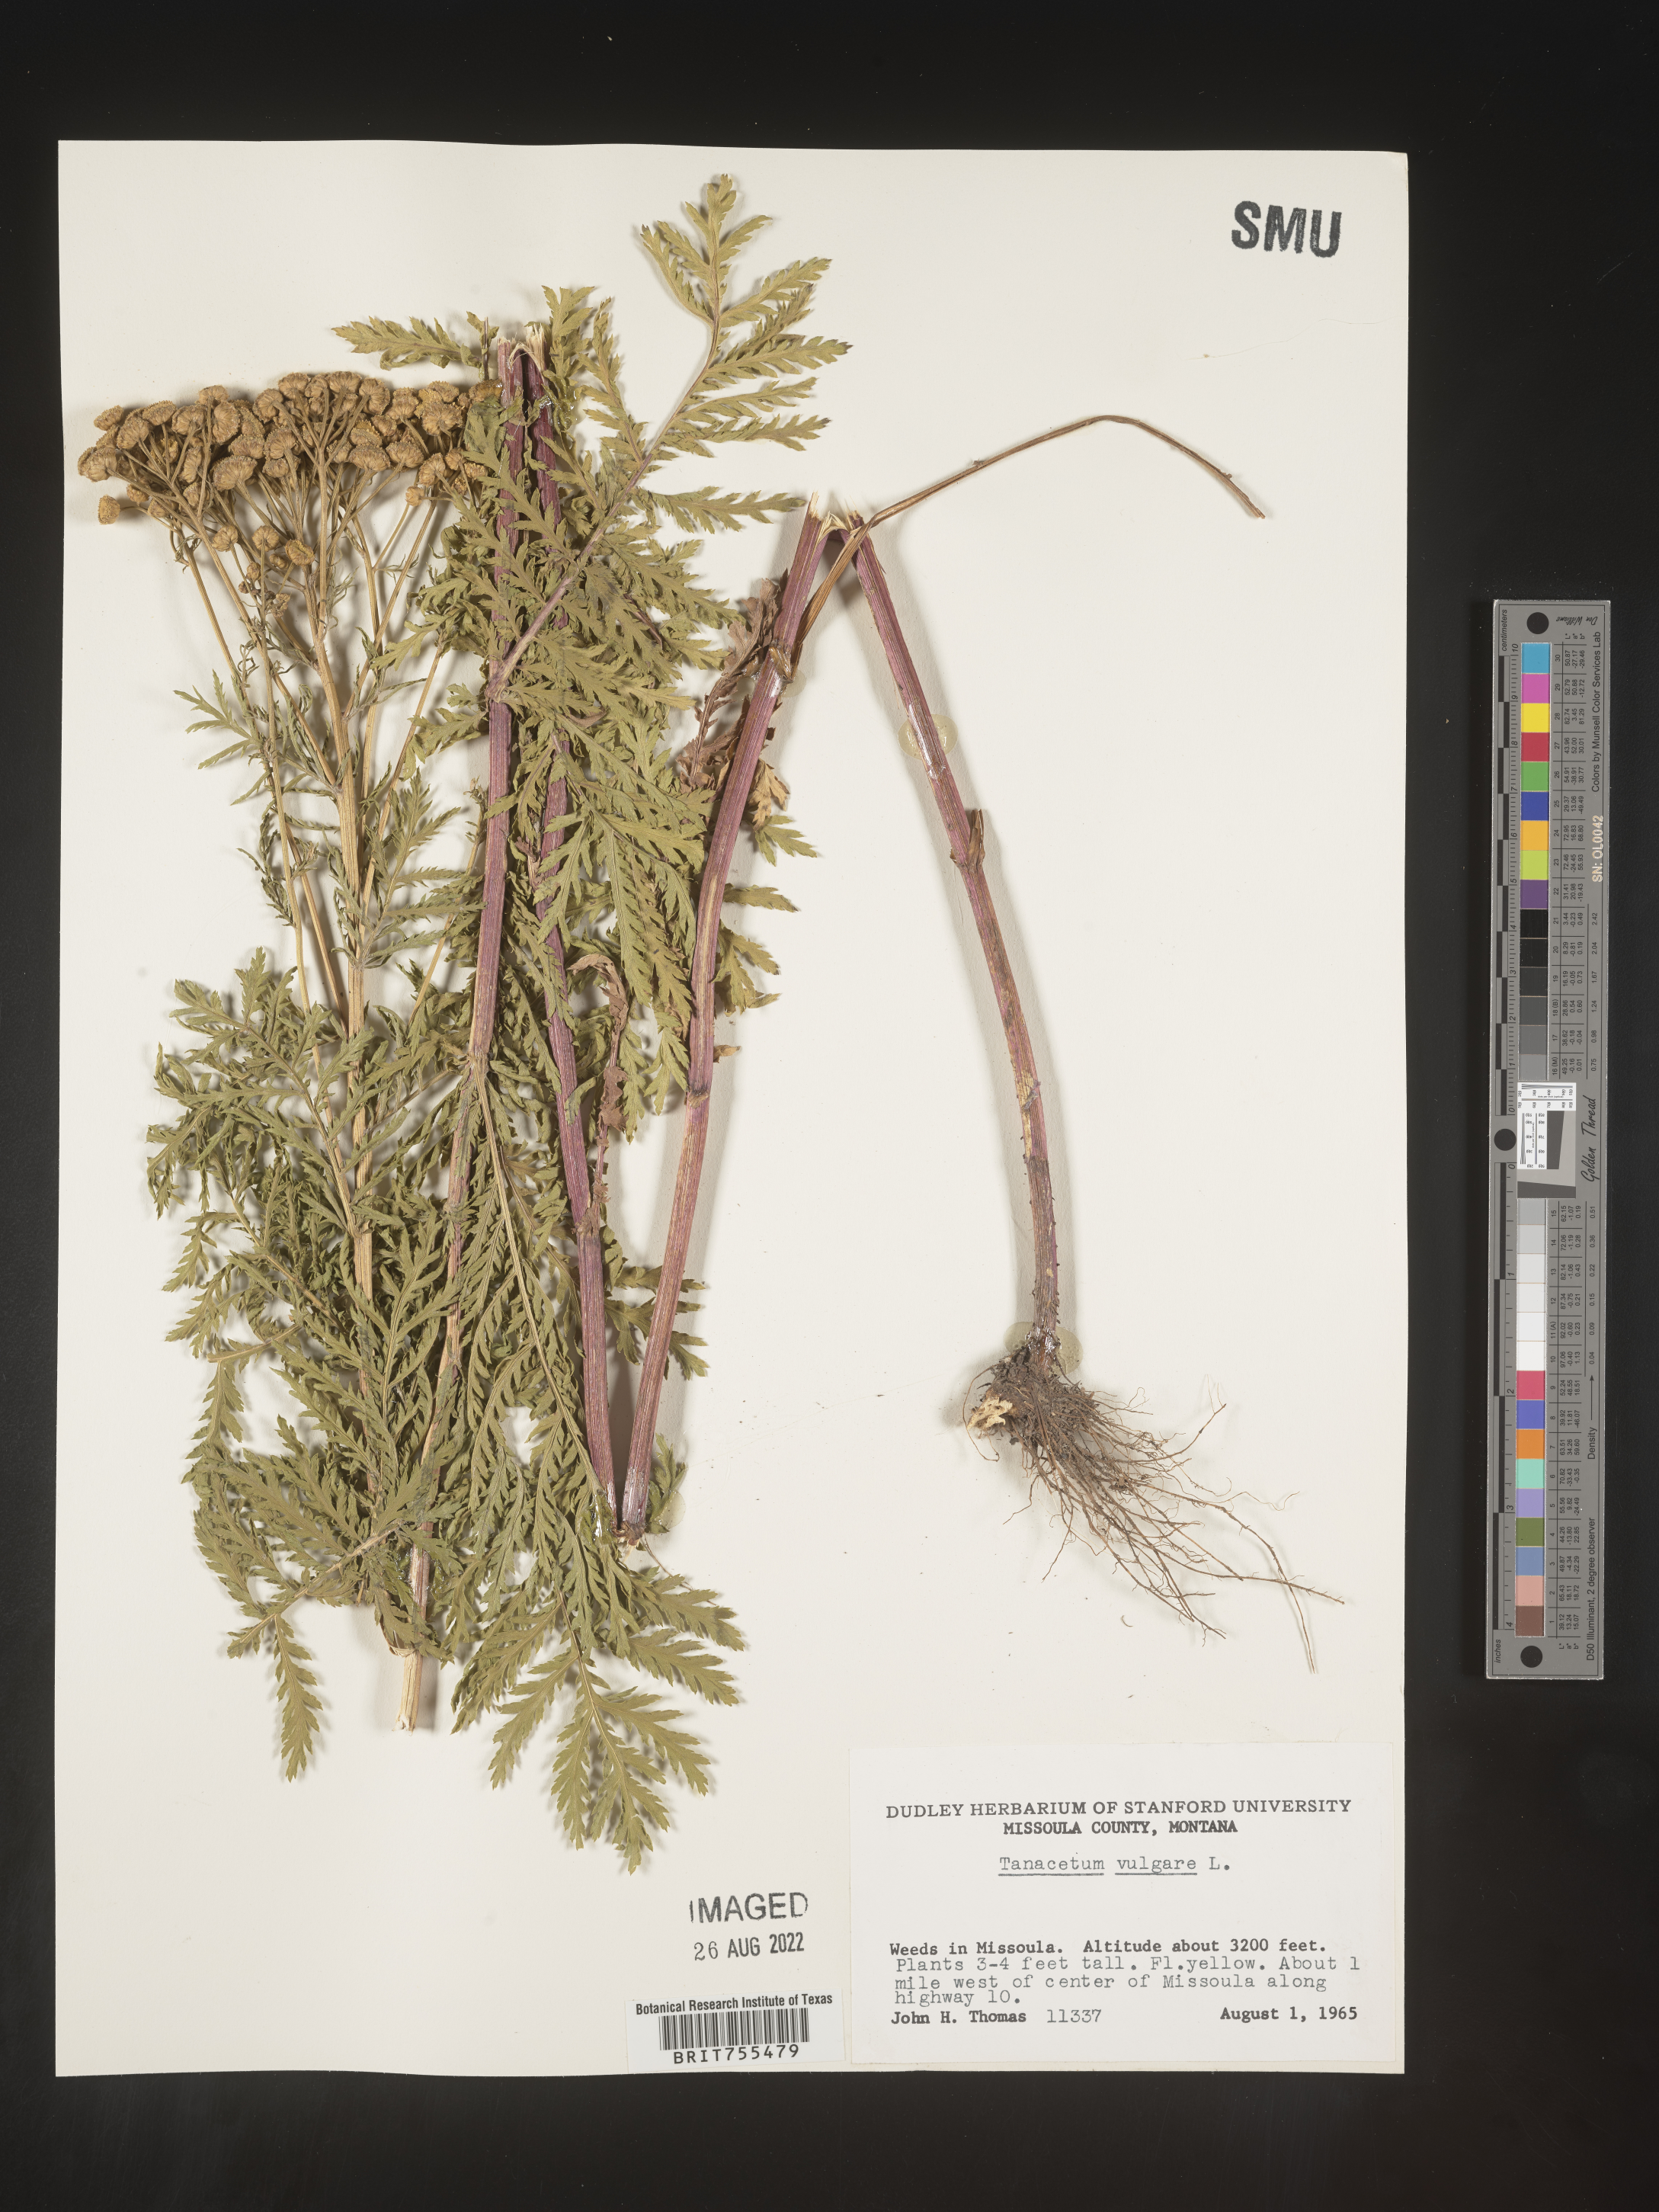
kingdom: Plantae
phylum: Tracheophyta
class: Magnoliopsida
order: Asterales
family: Asteraceae
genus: Tanacetum
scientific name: Tanacetum vulgare
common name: Common tansy
